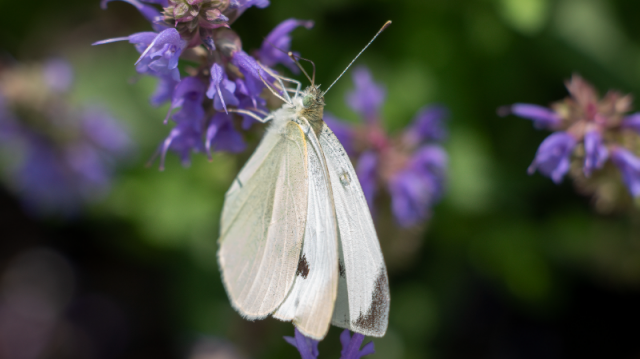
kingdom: Animalia
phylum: Arthropoda
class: Insecta
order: Lepidoptera
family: Pieridae
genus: Pieris
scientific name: Pieris rapae
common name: Cabbage White
